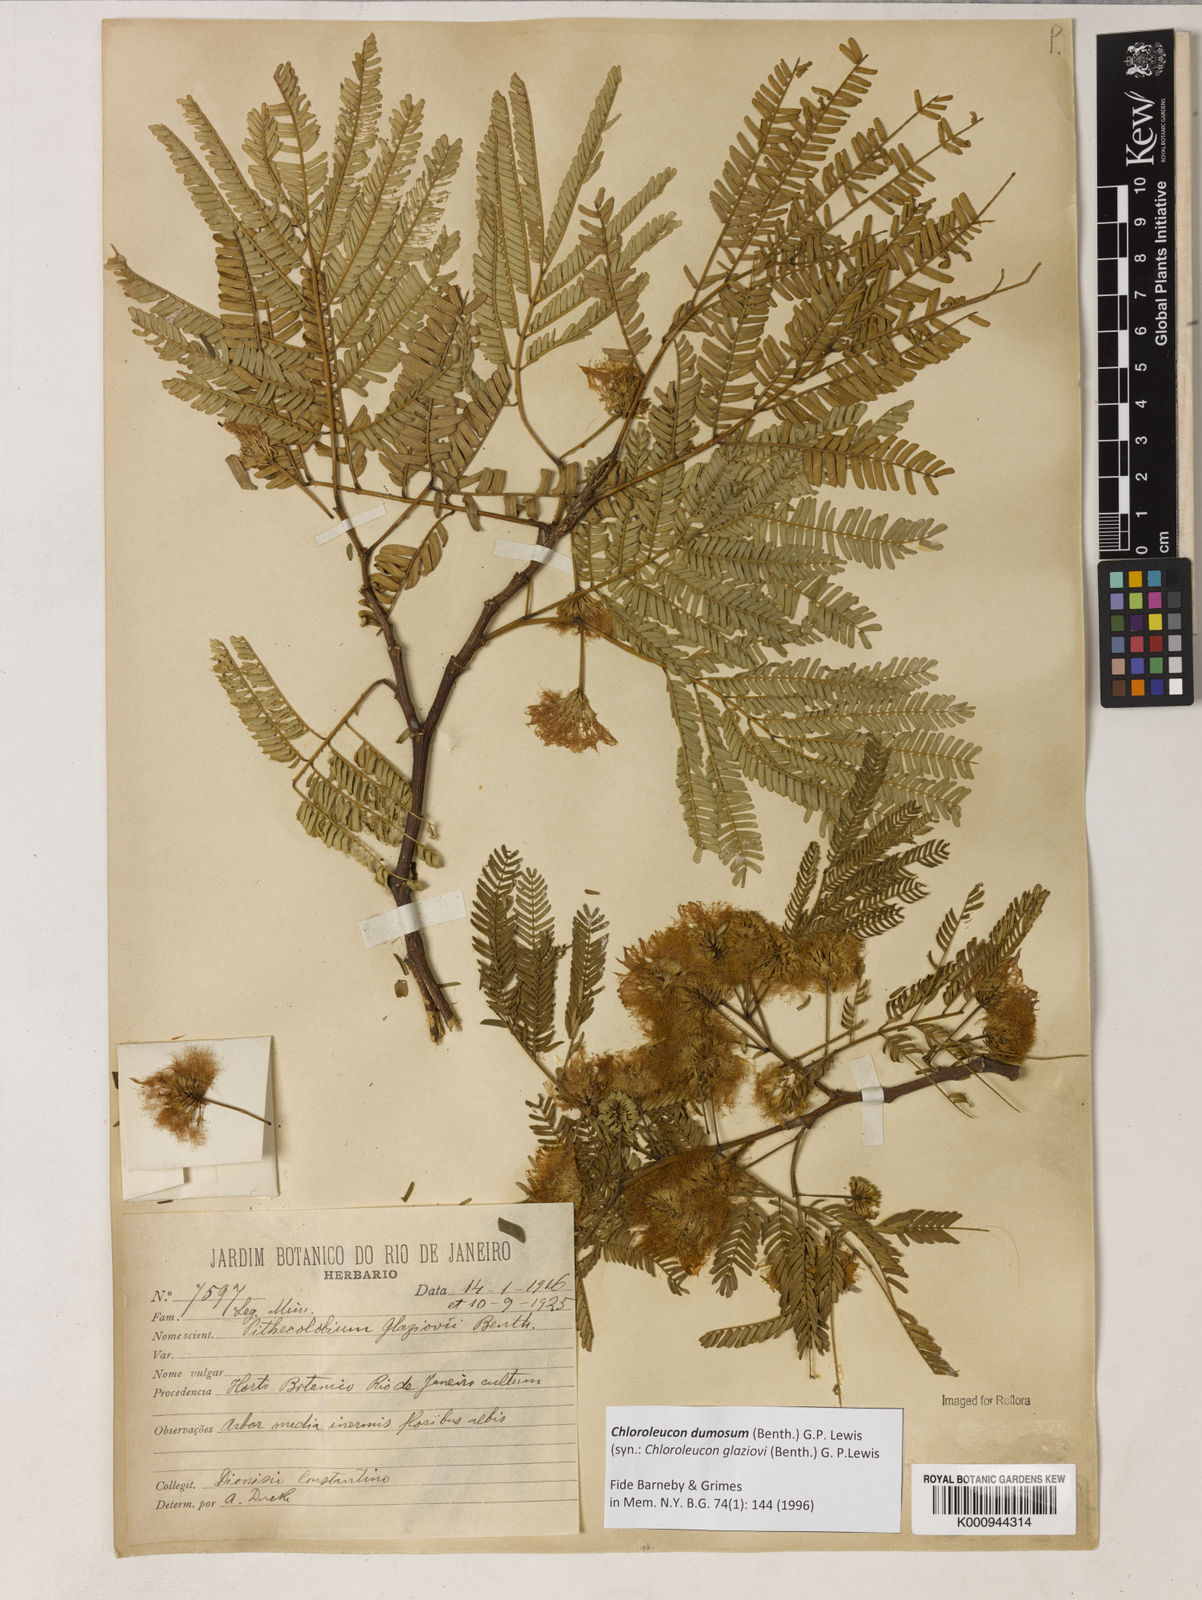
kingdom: Plantae
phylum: Tracheophyta
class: Magnoliopsida
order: Fabales
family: Fabaceae
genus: Inga
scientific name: Inga stenoptera
